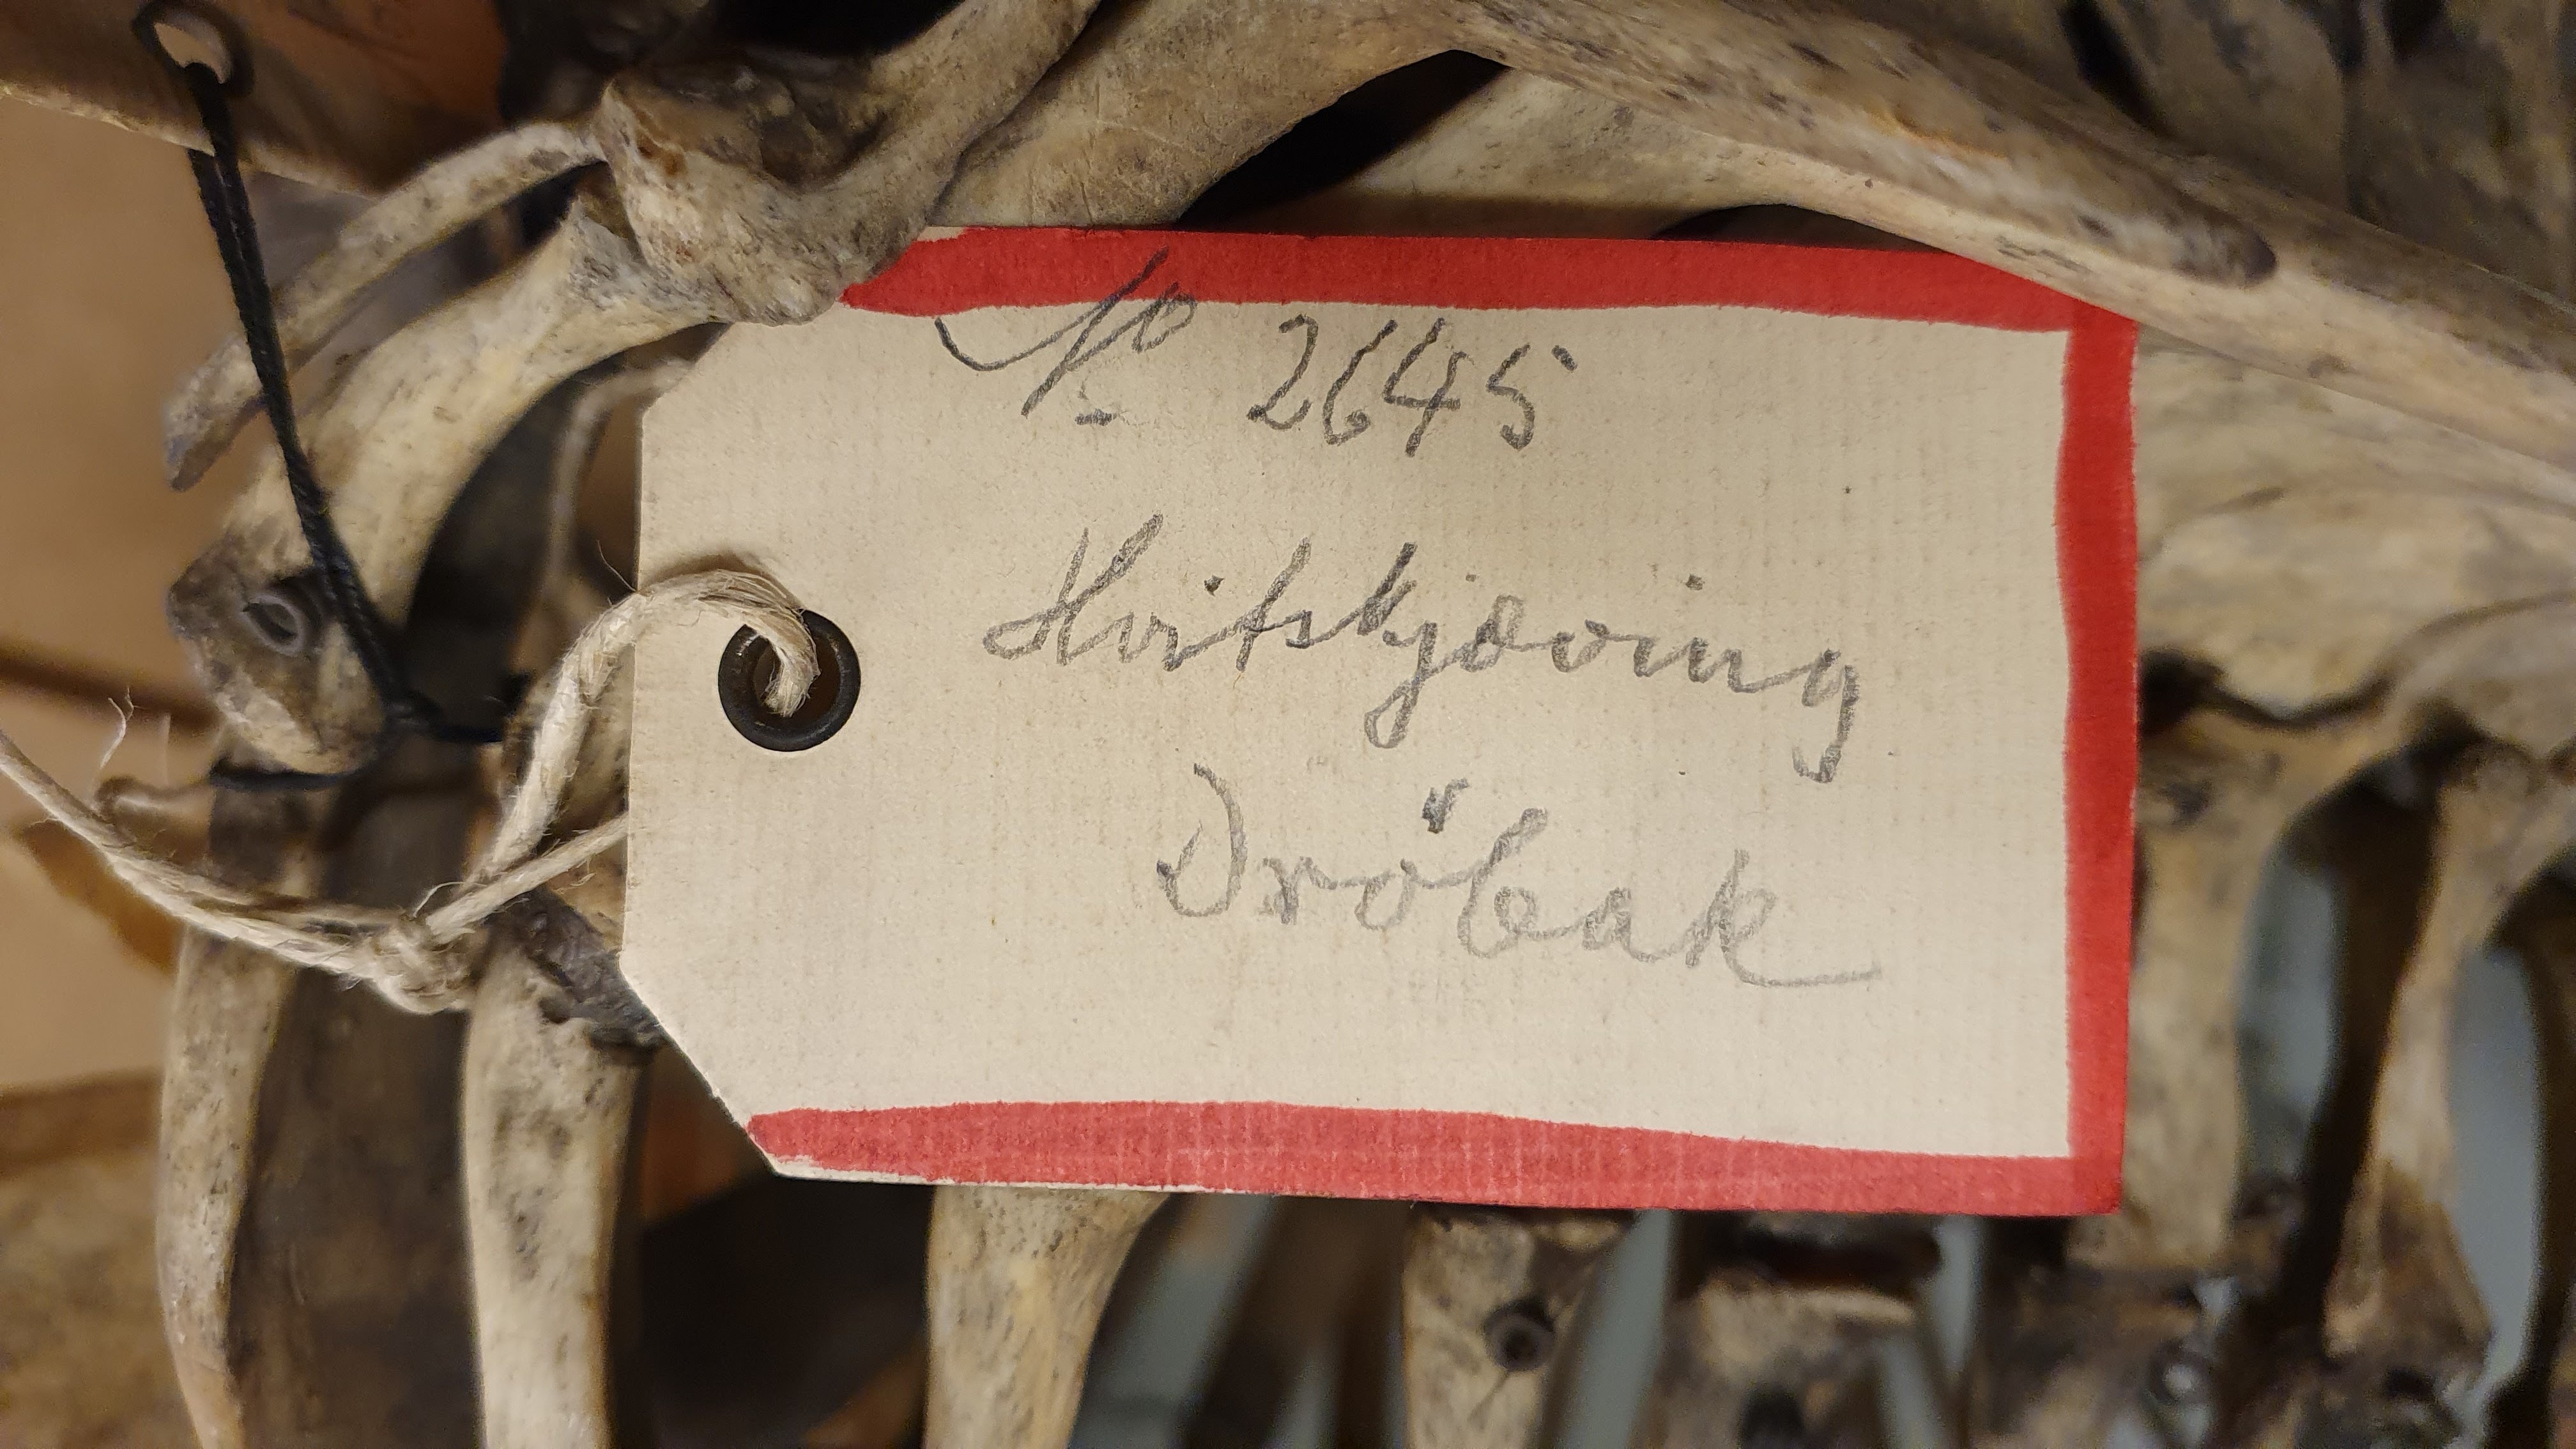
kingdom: Animalia
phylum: Chordata
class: Mammalia
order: Cetacea
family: Delphinidae
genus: Lagenorhynchus
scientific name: Lagenorhynchus acutus
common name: Atlantic white-sided dolphin
